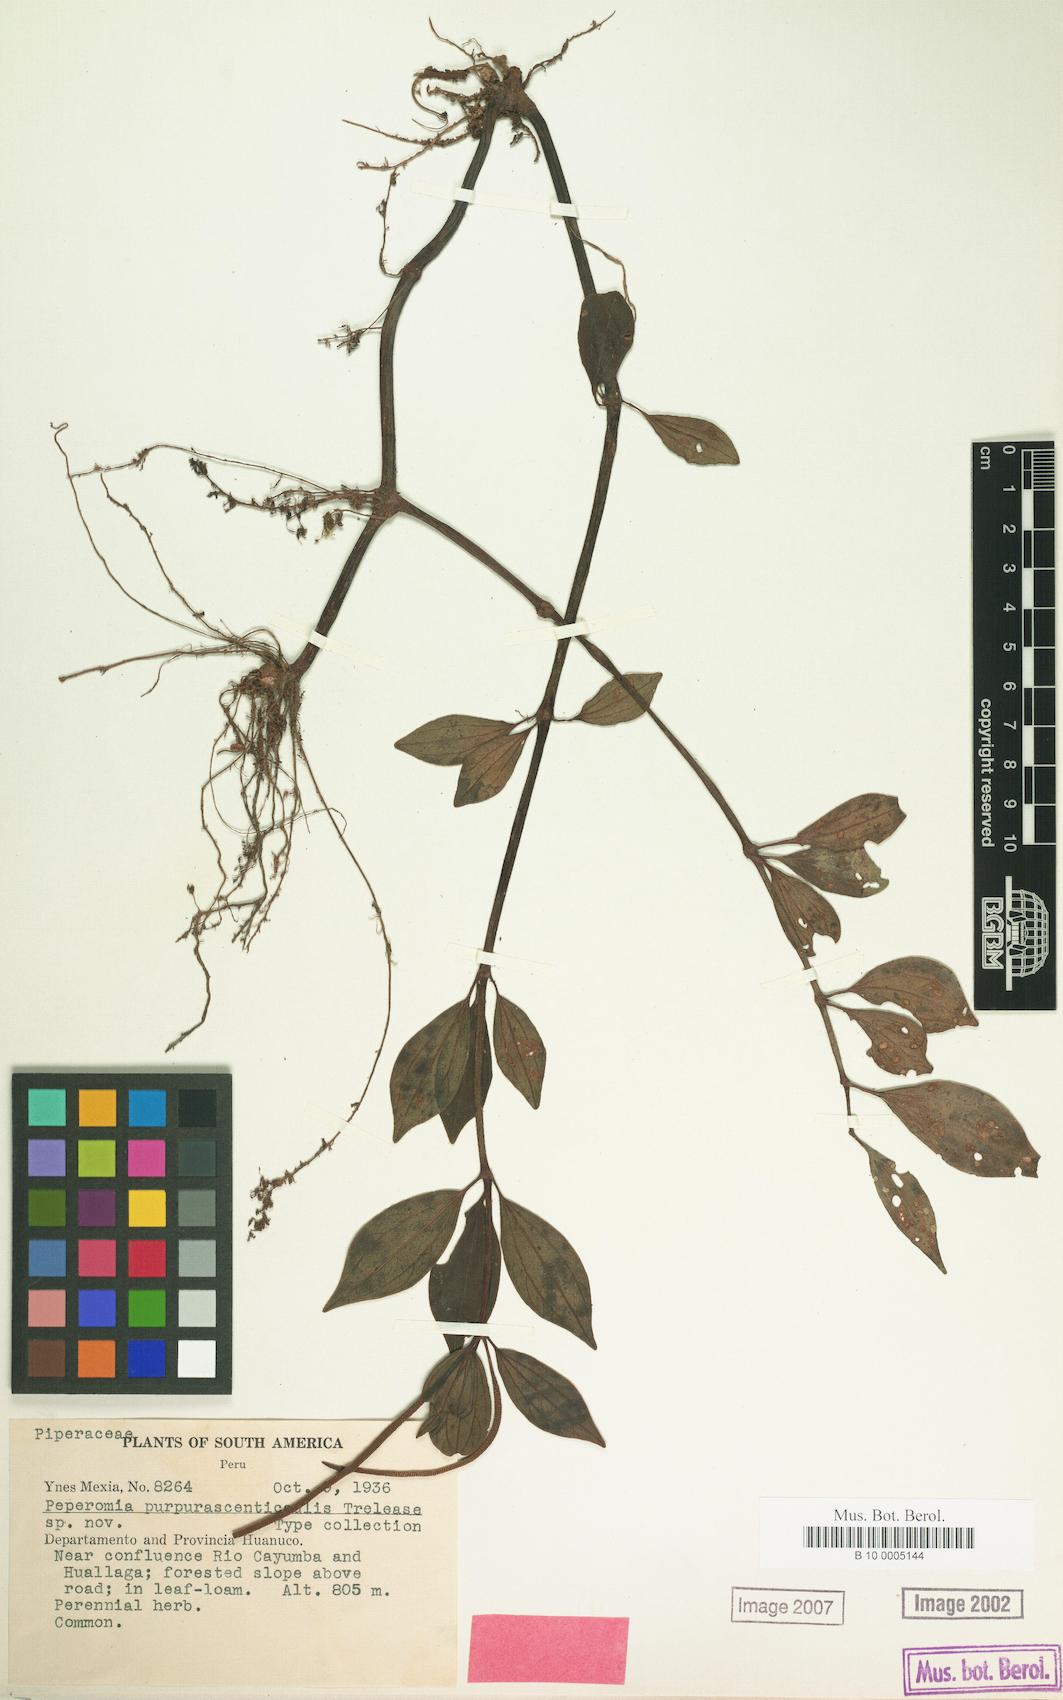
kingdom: Plantae
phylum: Tracheophyta
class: Magnoliopsida
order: Piperales
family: Piperaceae
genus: Peperomia
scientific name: Peperomia
